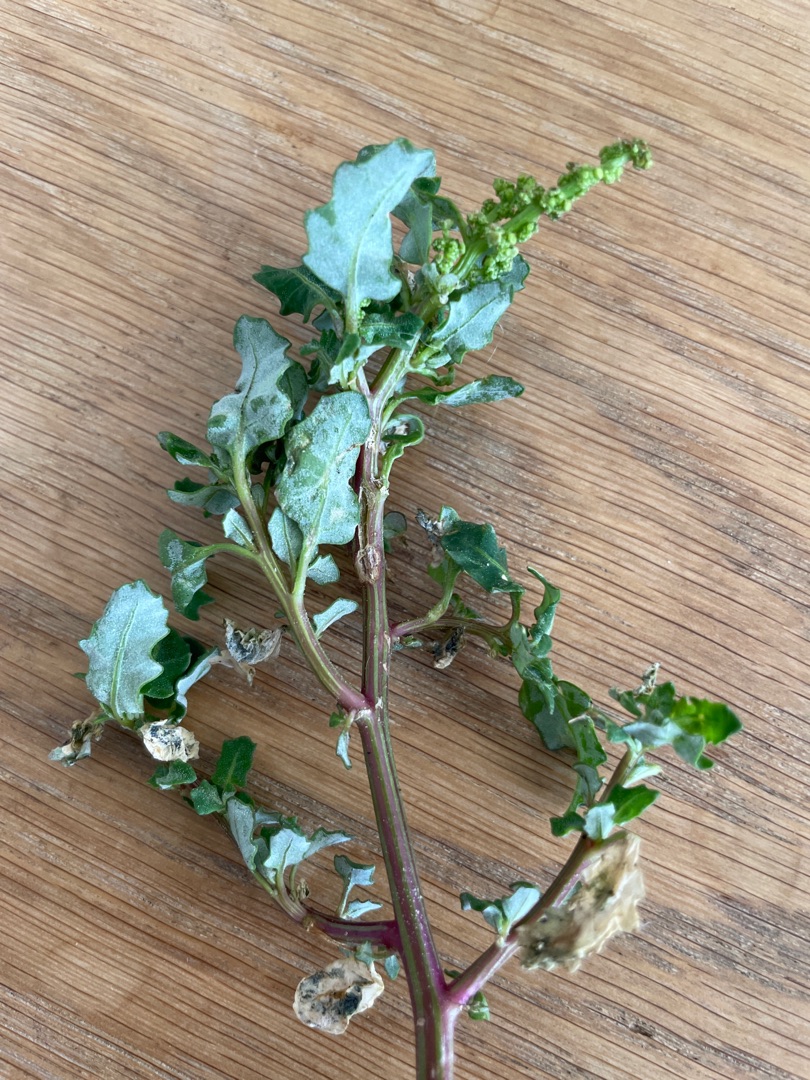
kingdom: Plantae
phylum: Tracheophyta
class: Magnoliopsida
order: Caryophyllales
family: Amaranthaceae
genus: Oxybasis
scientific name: Oxybasis glauca
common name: Blågrøn gåsefod
